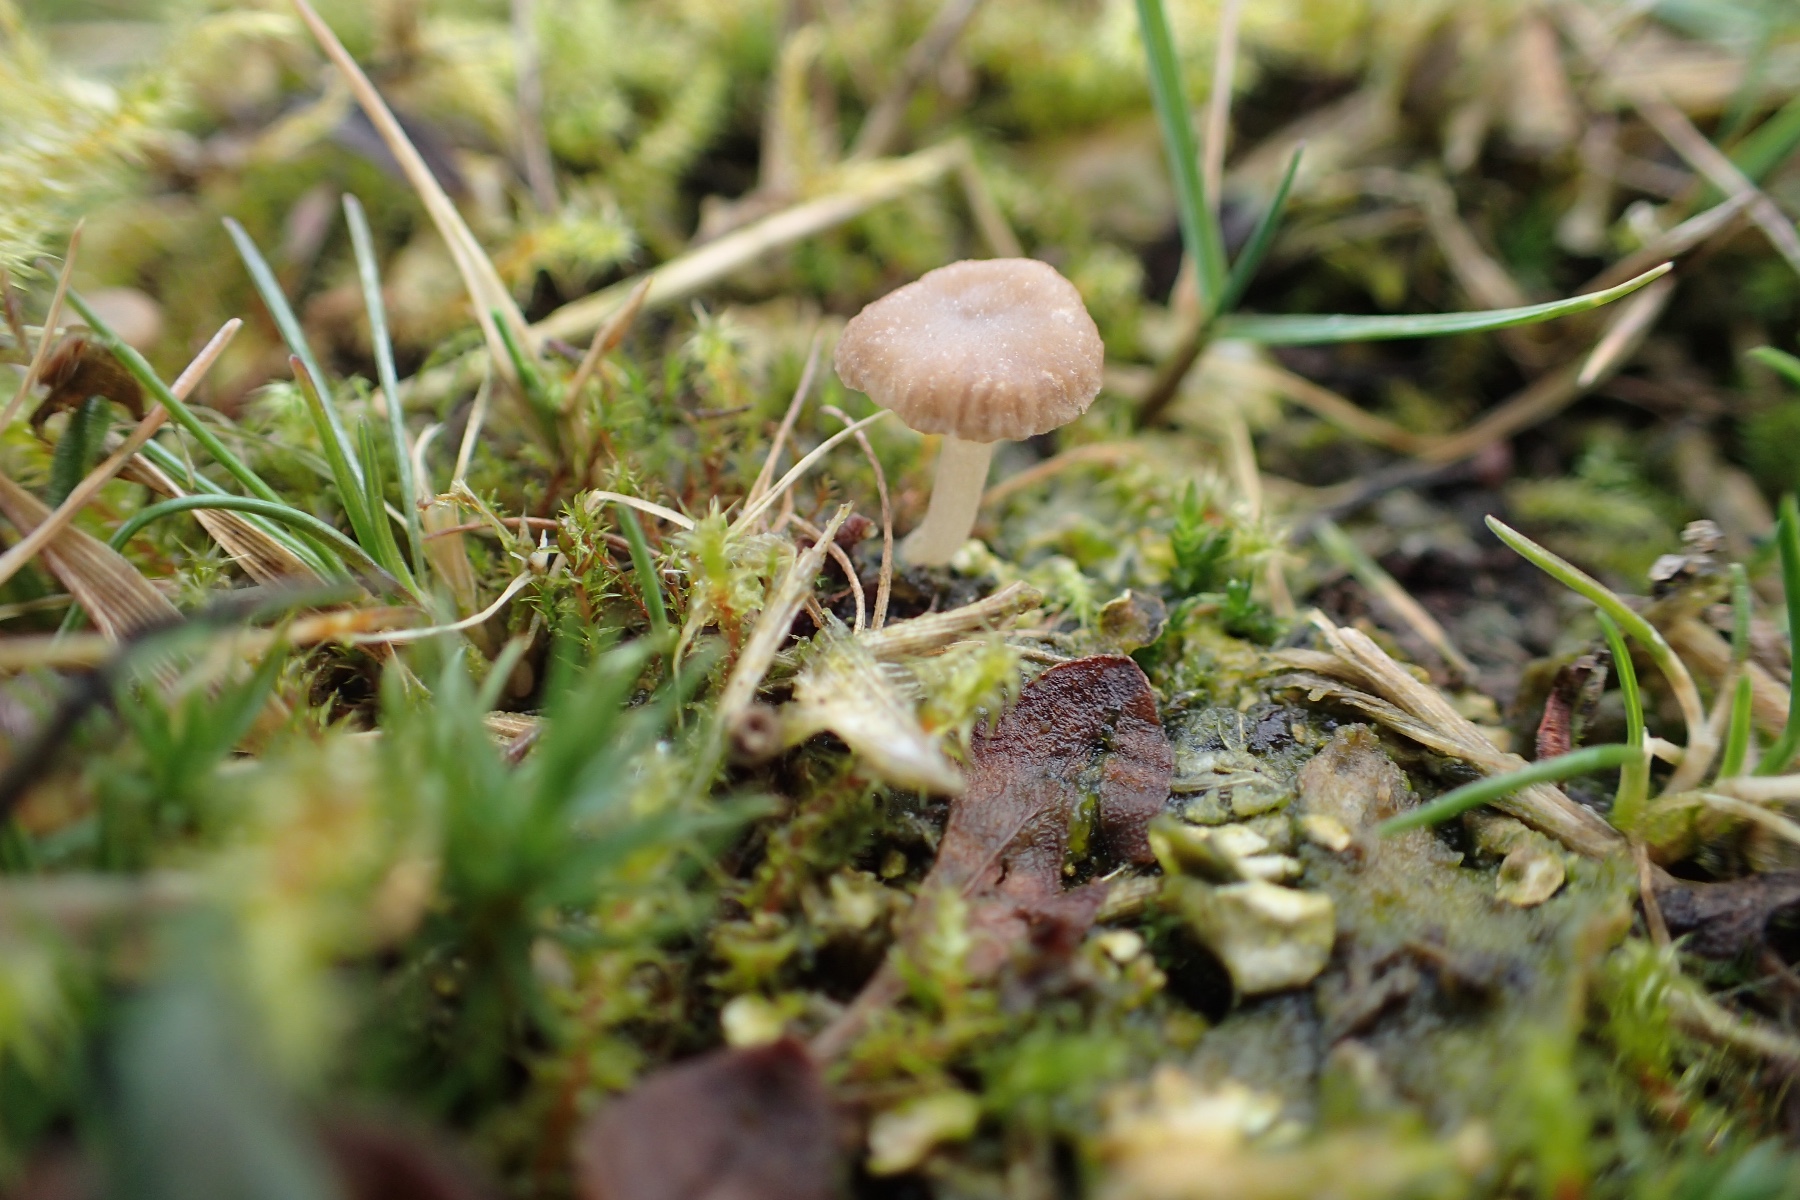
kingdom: Fungi
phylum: Basidiomycota
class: Agaricomycetes
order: Agaricales
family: Hygrophoraceae
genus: Arrhenia
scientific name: Arrhenia peltigerina
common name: skjoldlav-fontænehat
